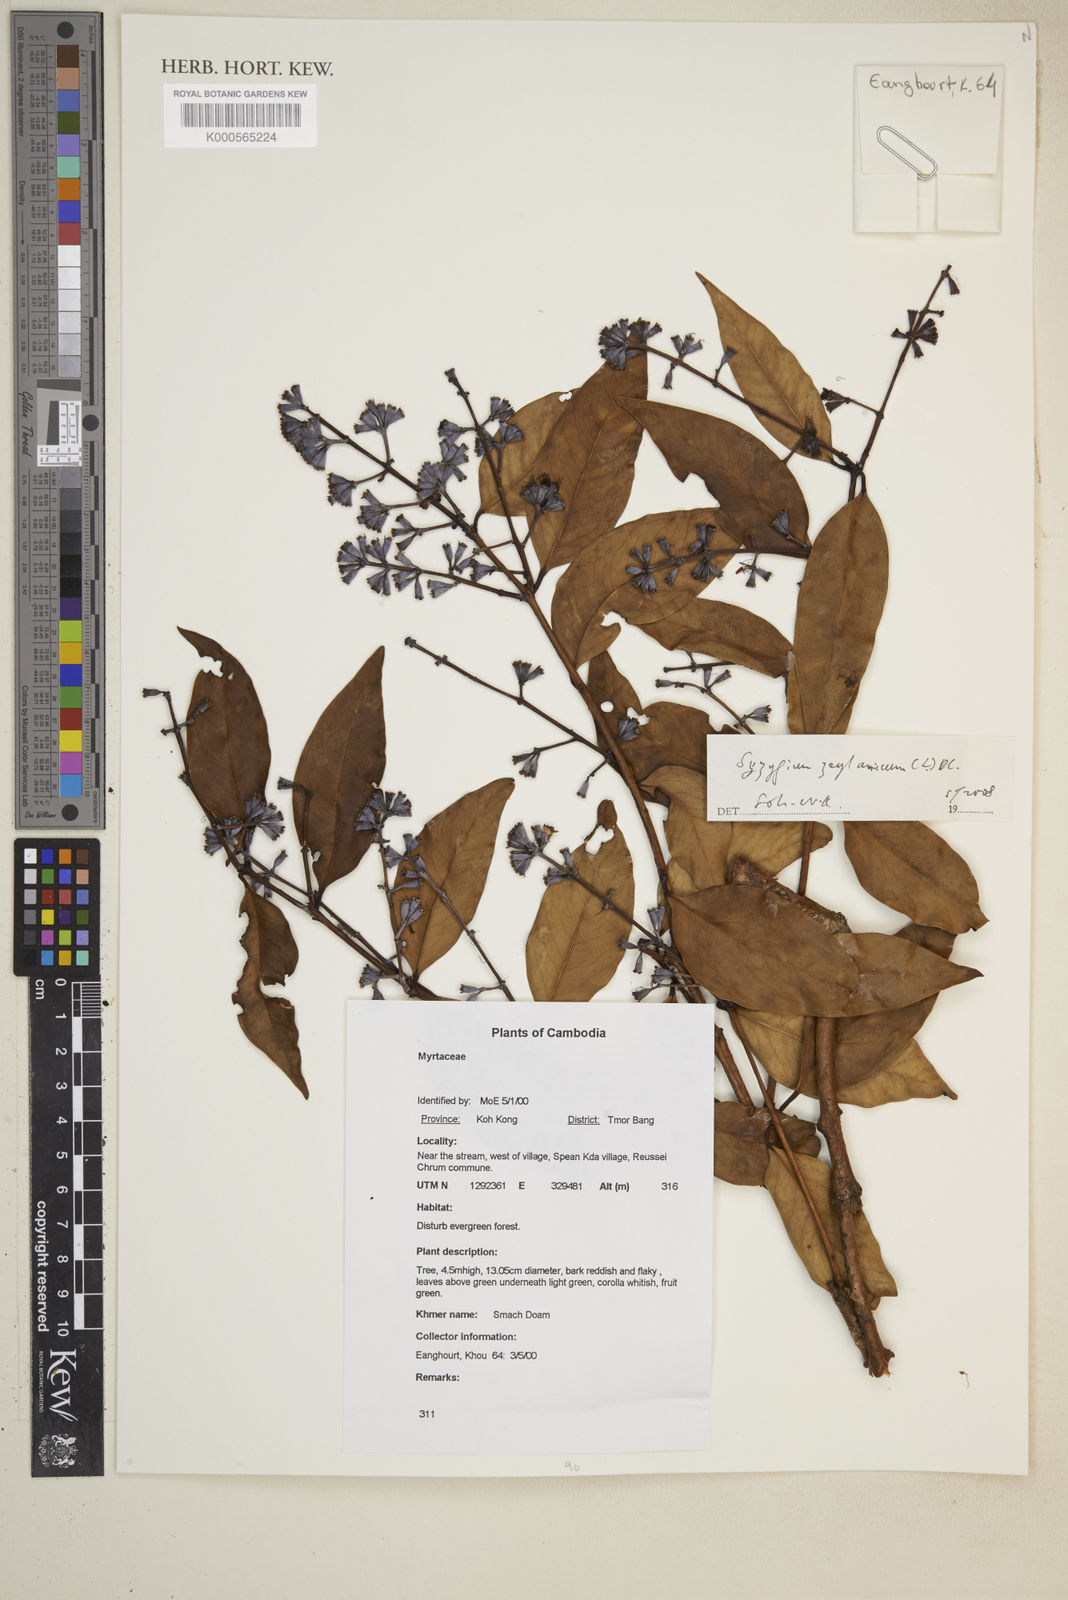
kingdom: Plantae
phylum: Tracheophyta
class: Magnoliopsida
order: Myrtales
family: Myrtaceae
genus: Syzygium
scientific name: Syzygium zeylanicum
